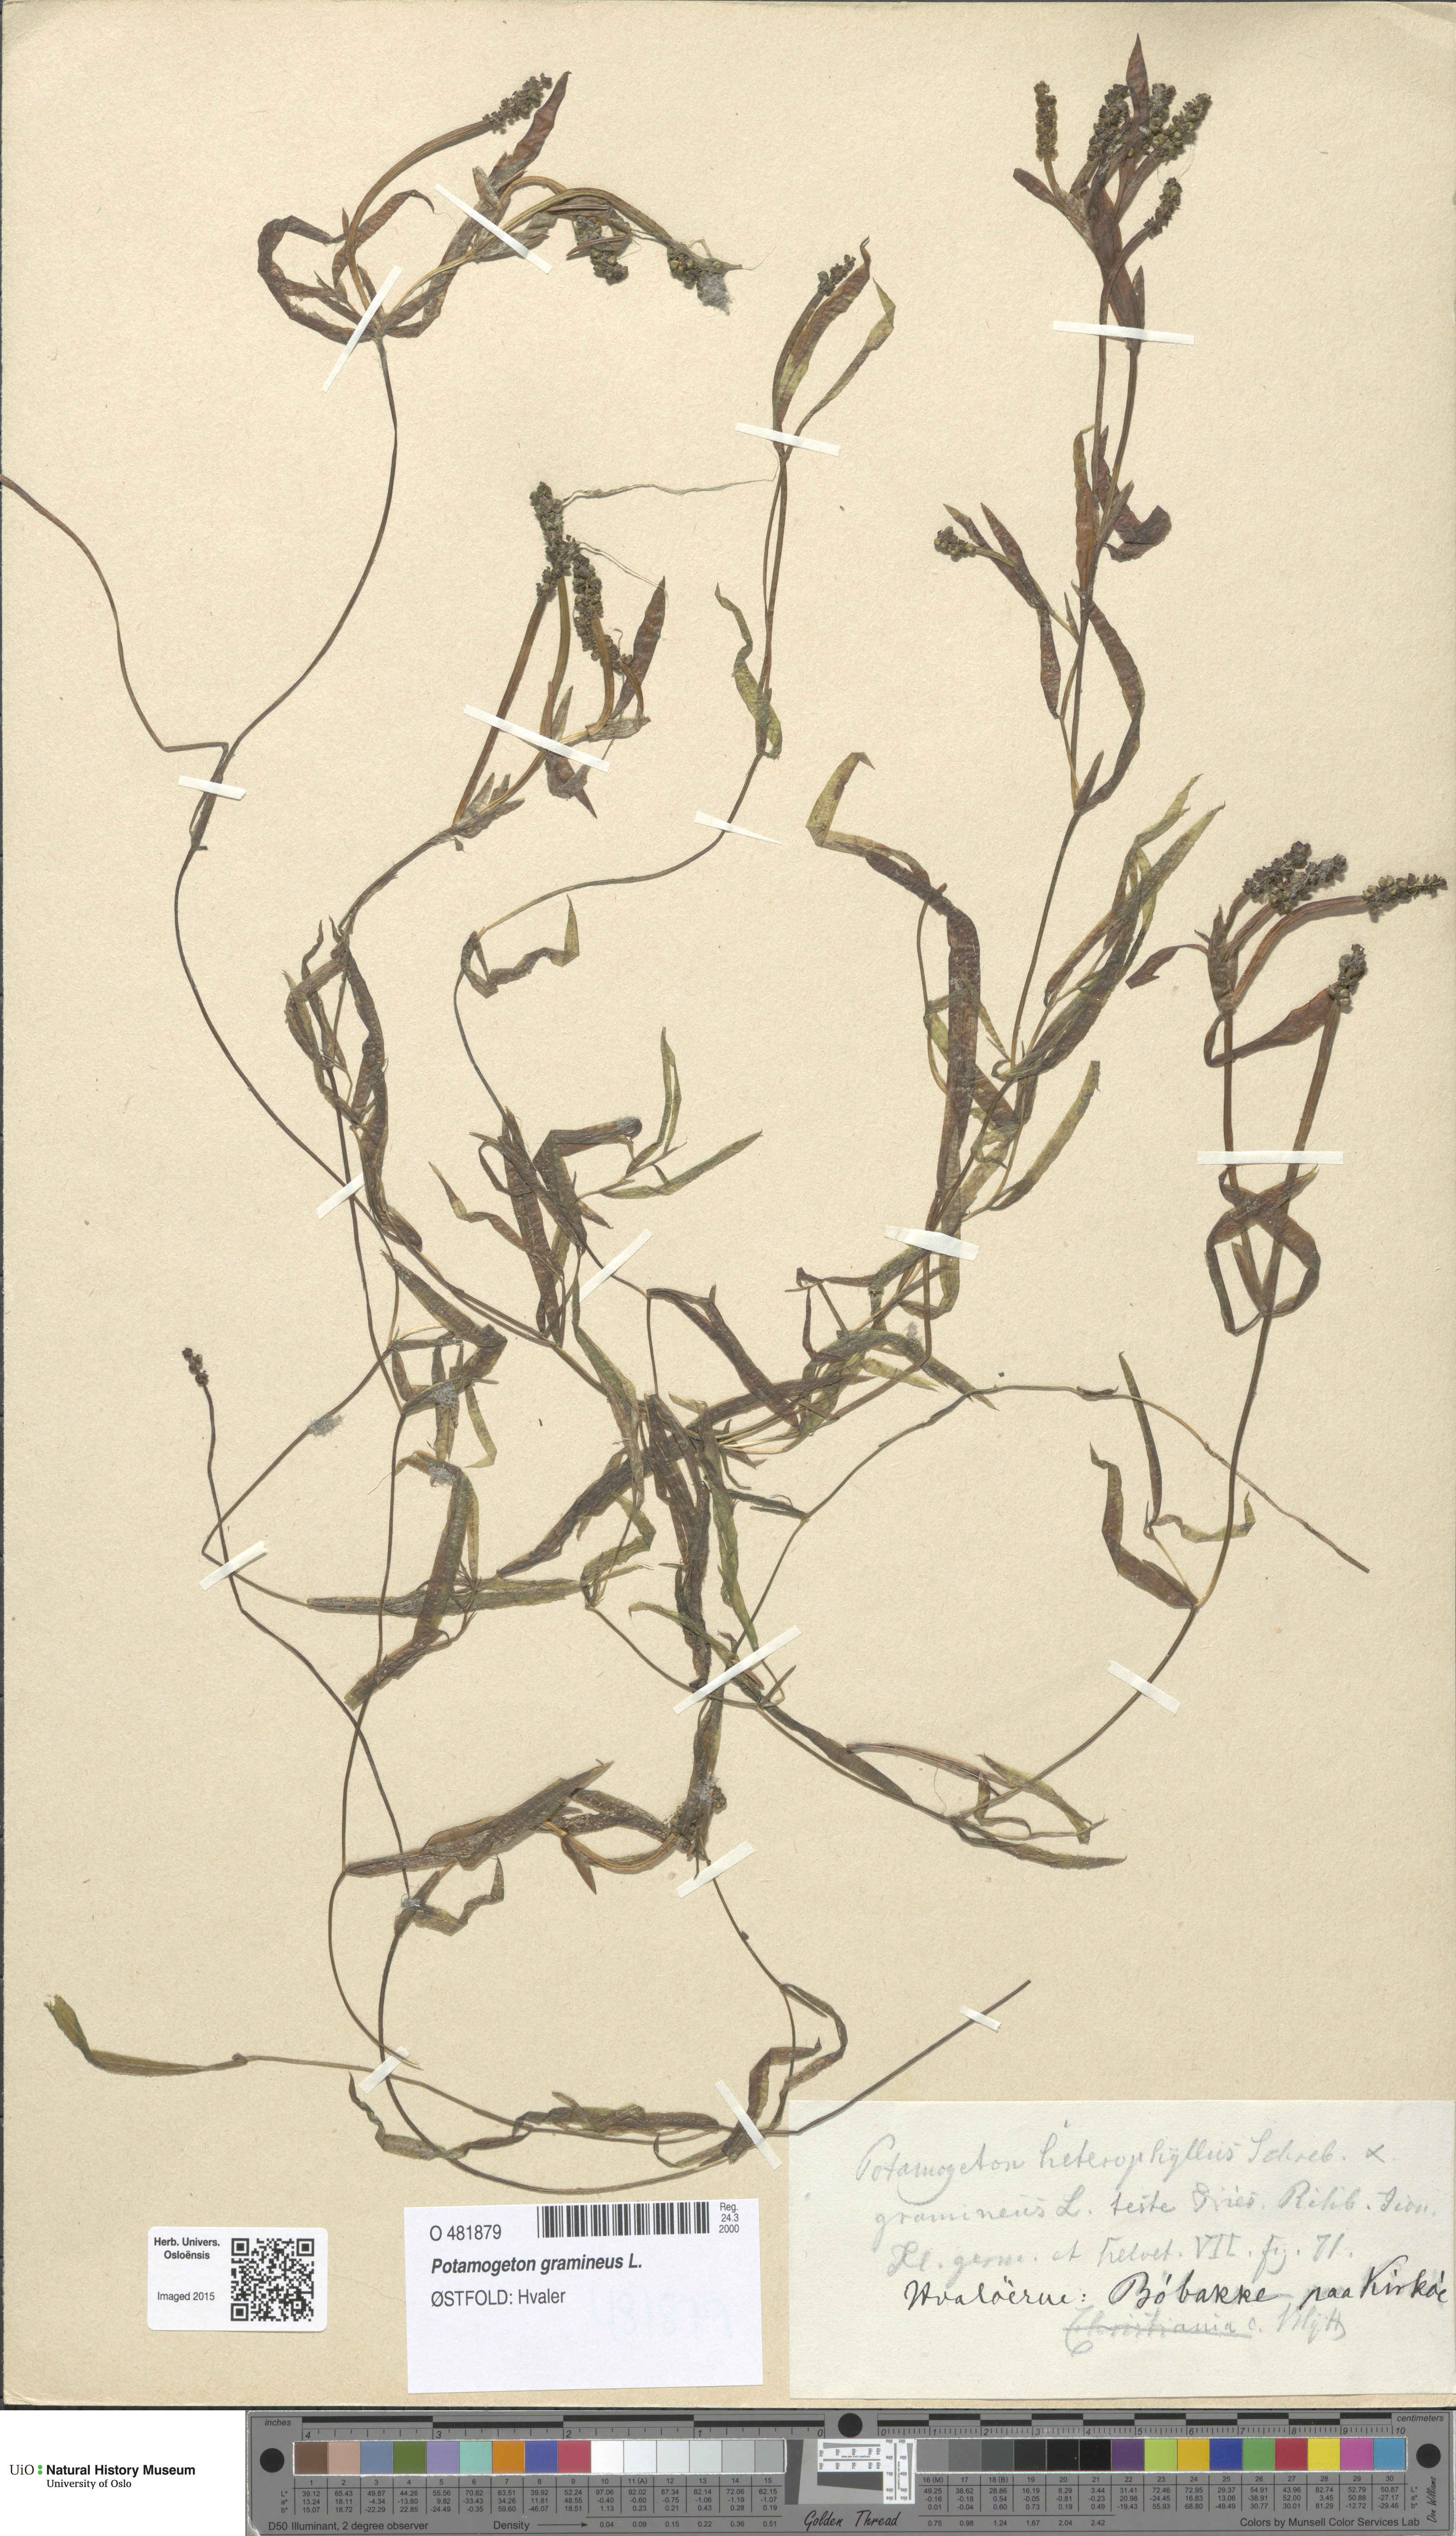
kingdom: Plantae
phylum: Tracheophyta
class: Liliopsida
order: Alismatales
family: Potamogetonaceae
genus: Potamogeton
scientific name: Potamogeton gramineus
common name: Various-leaved pondweed
